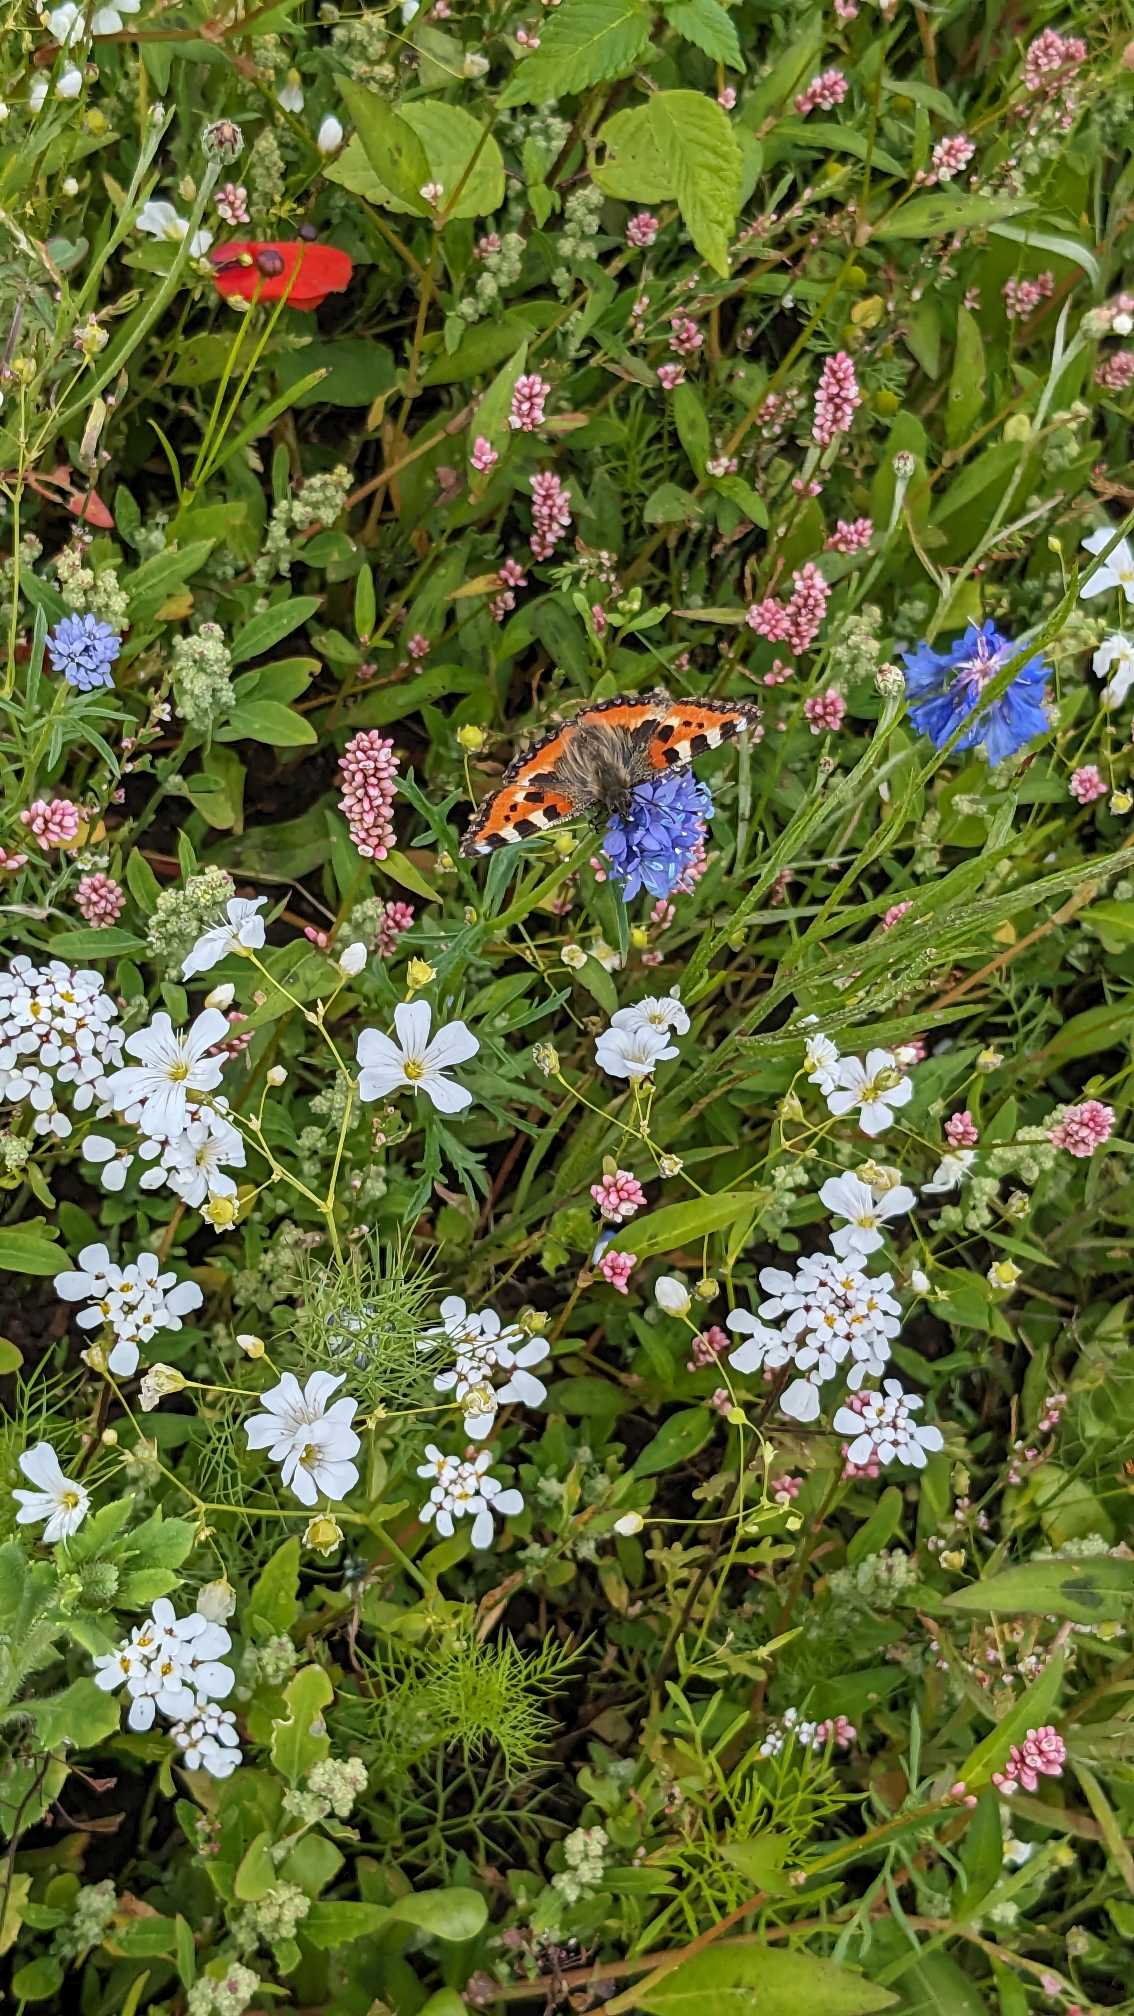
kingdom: Animalia
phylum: Arthropoda
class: Insecta
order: Lepidoptera
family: Nymphalidae
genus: Aglais
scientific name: Aglais urticae
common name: Nældens takvinge
